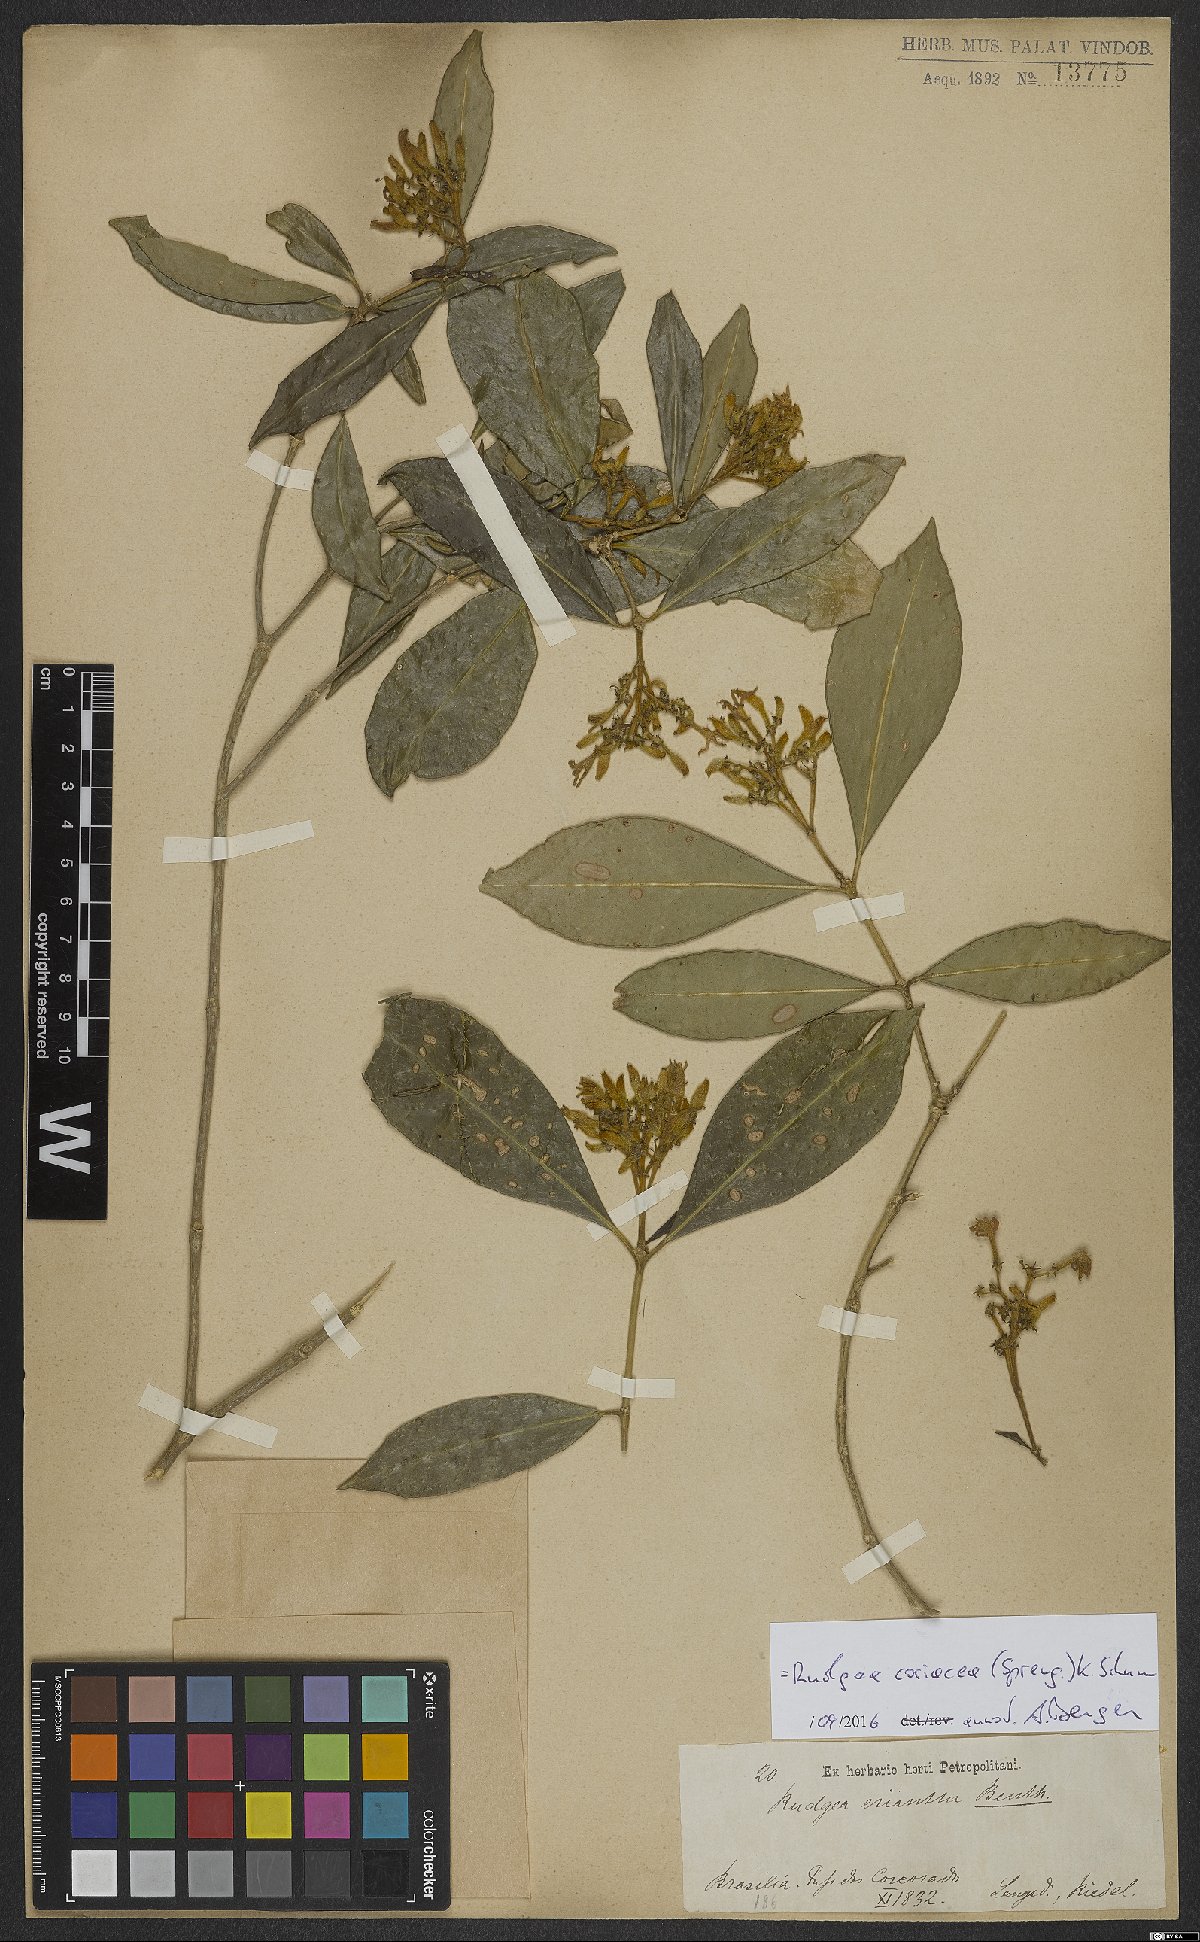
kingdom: Plantae
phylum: Tracheophyta
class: Magnoliopsida
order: Gentianales
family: Rubiaceae
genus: Rudgea
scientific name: Rudgea coriacea
